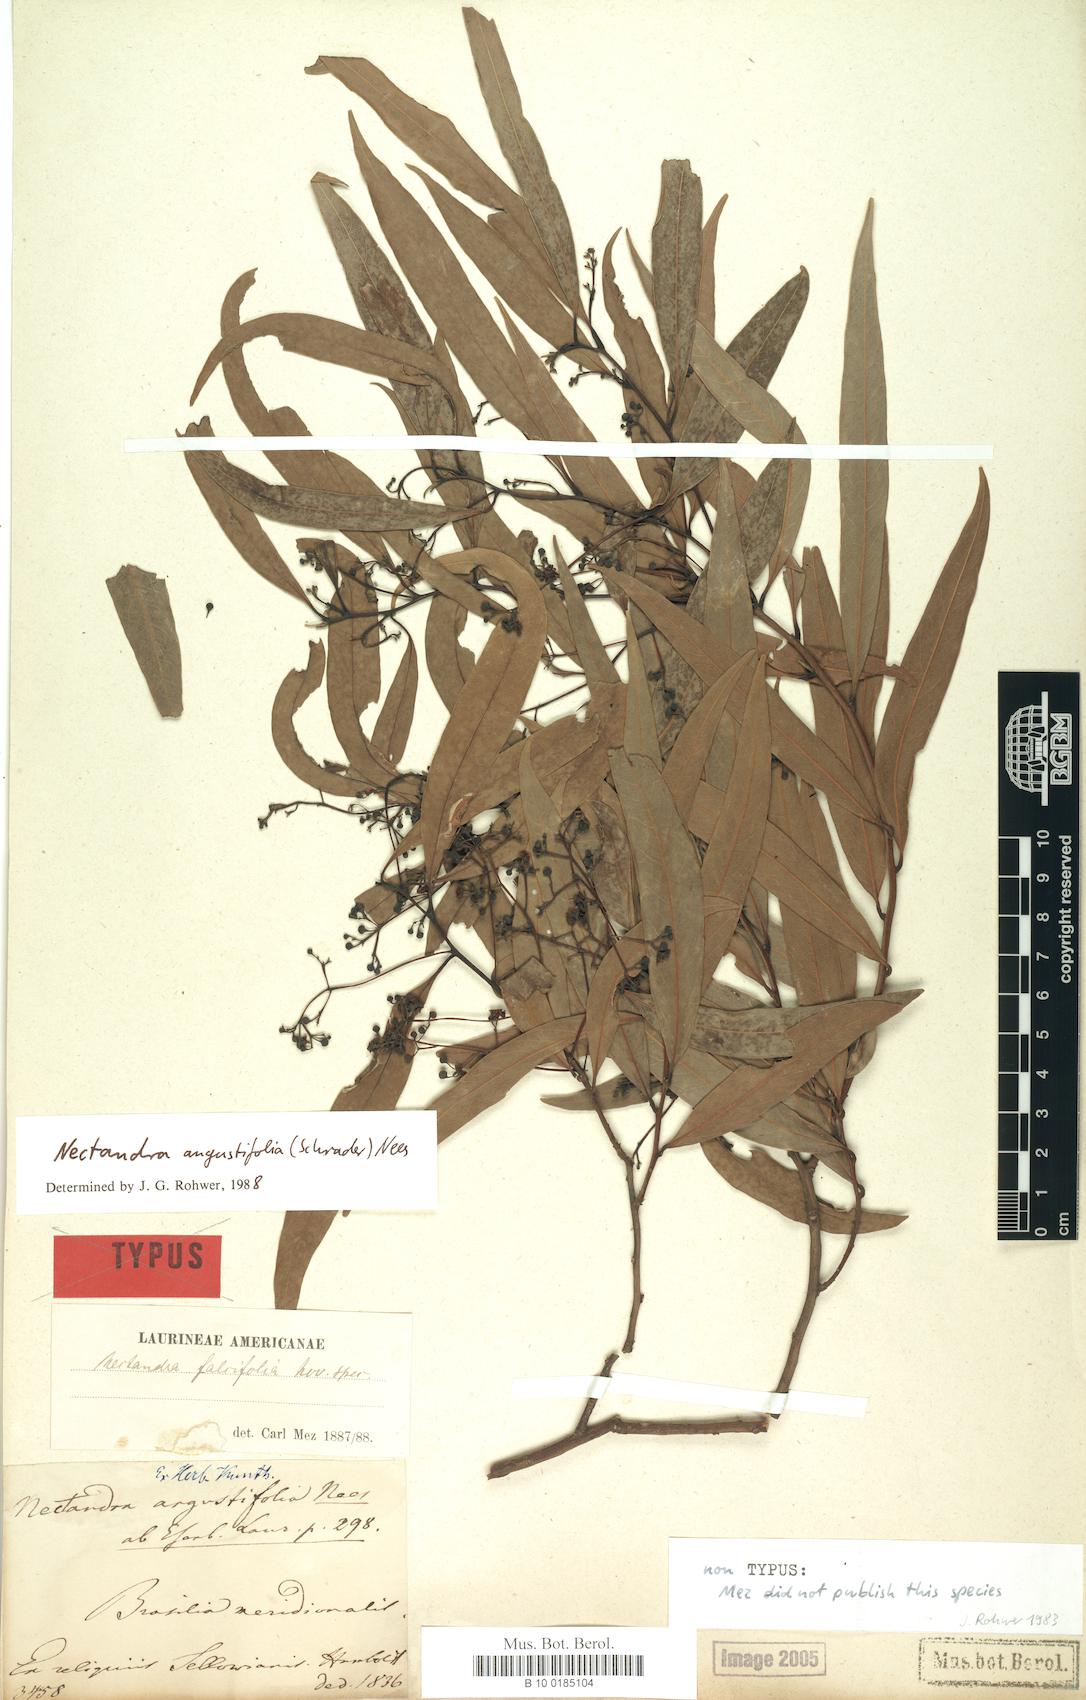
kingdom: Plantae
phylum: Tracheophyta
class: Magnoliopsida
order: Laurales
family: Lauraceae
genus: Nectandra
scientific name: Nectandra angustifolia
